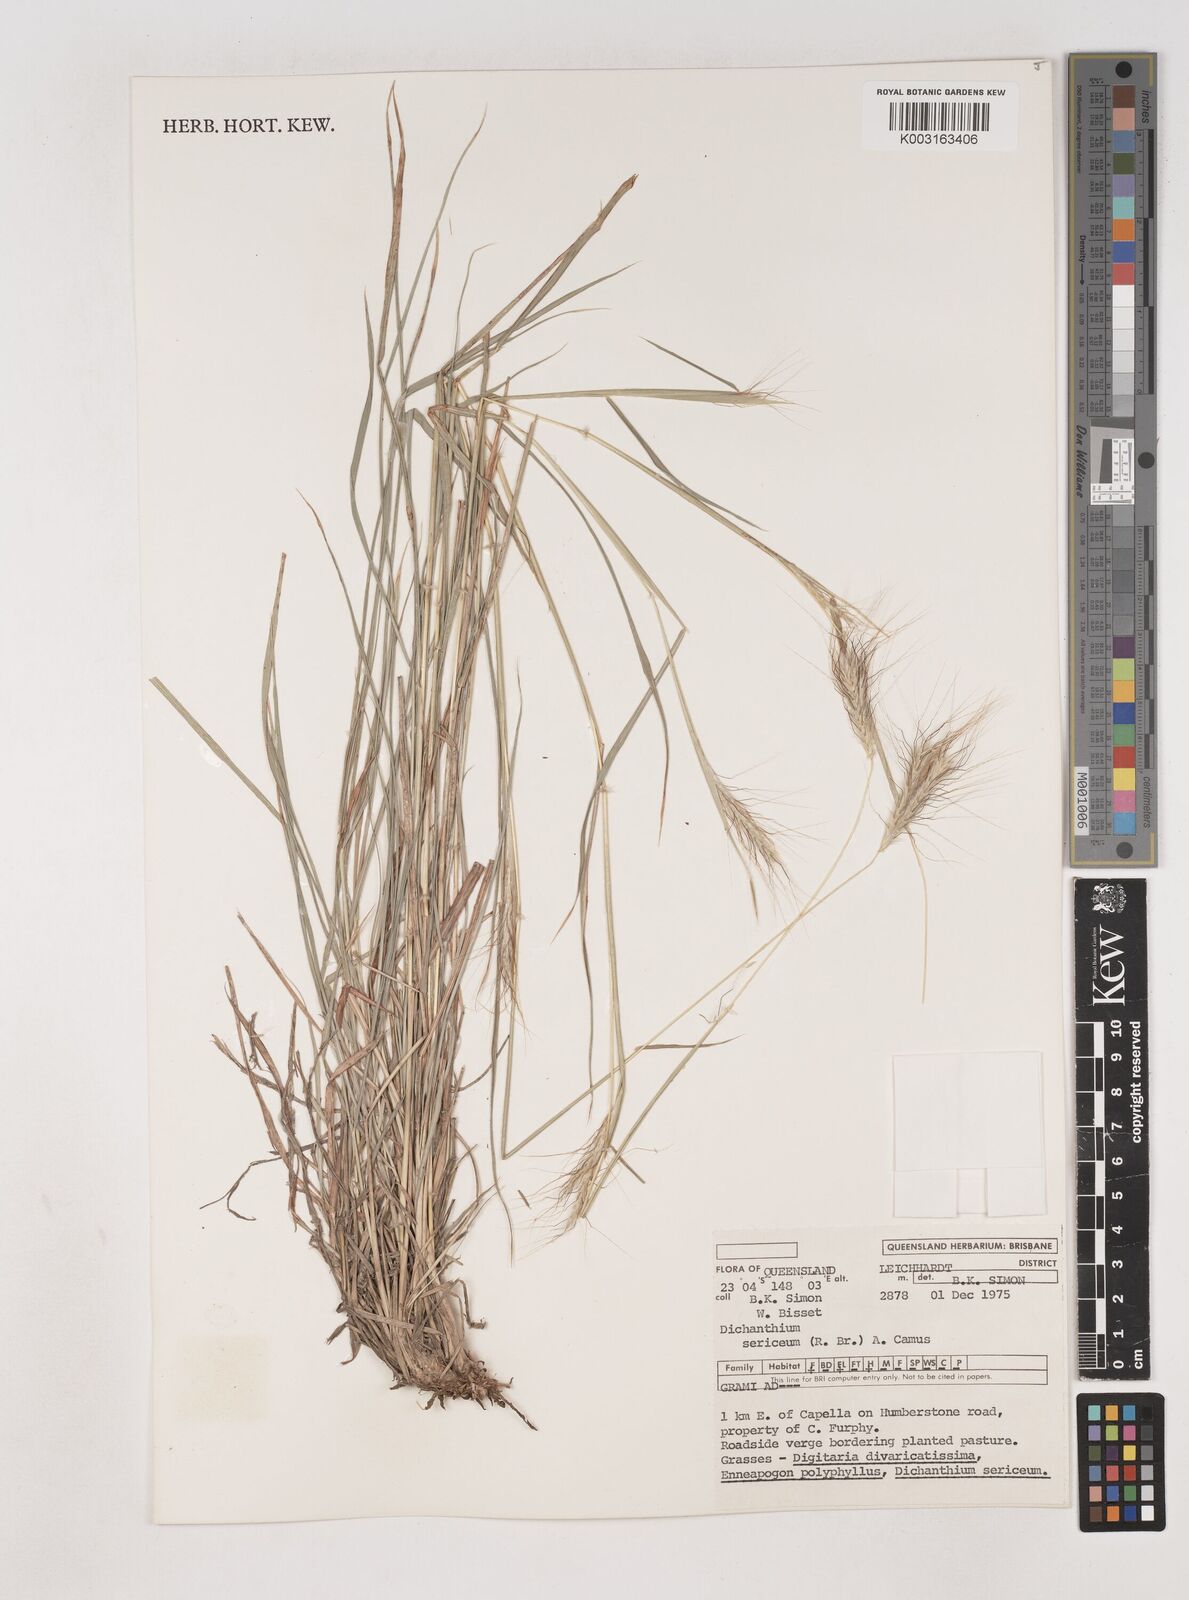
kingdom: Plantae
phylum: Tracheophyta
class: Liliopsida
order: Poales
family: Poaceae
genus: Dichanthium
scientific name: Dichanthium sericeum
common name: Silky bluestem
